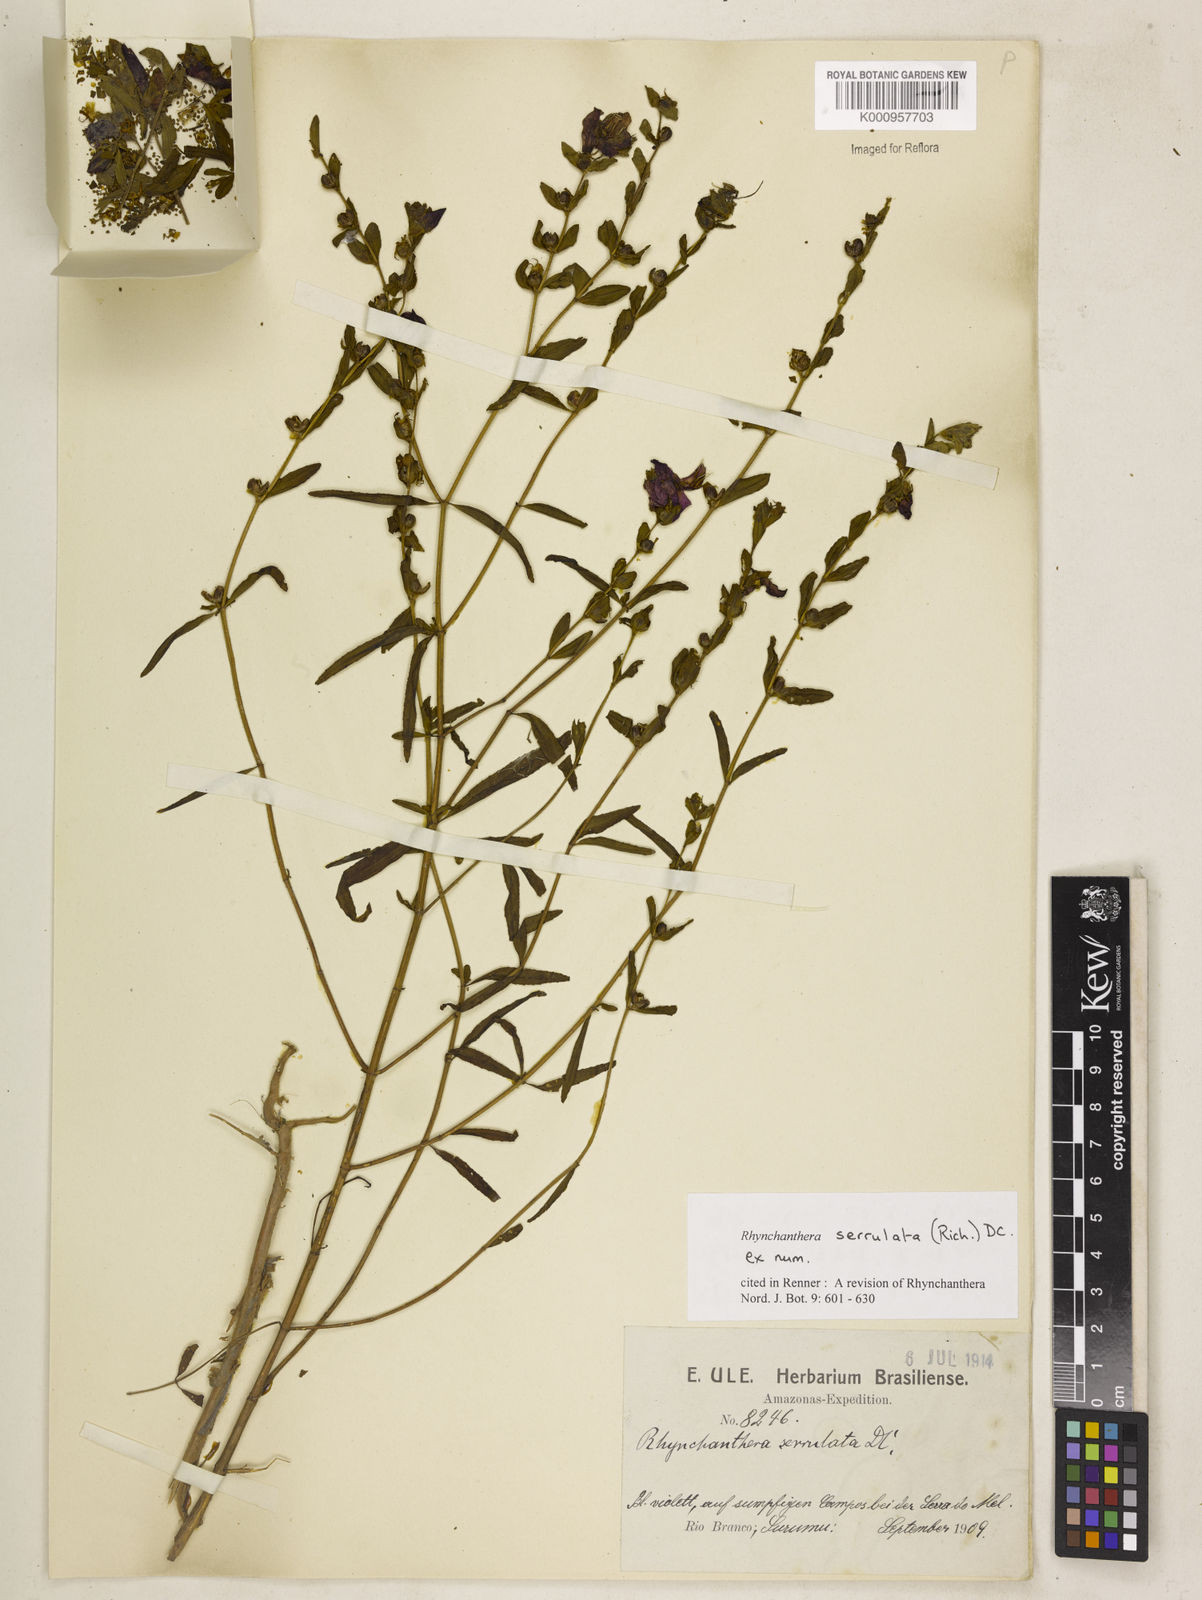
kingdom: Plantae
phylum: Tracheophyta
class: Magnoliopsida
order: Myrtales
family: Melastomataceae
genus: Rhynchanthera
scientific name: Rhynchanthera serrulata
